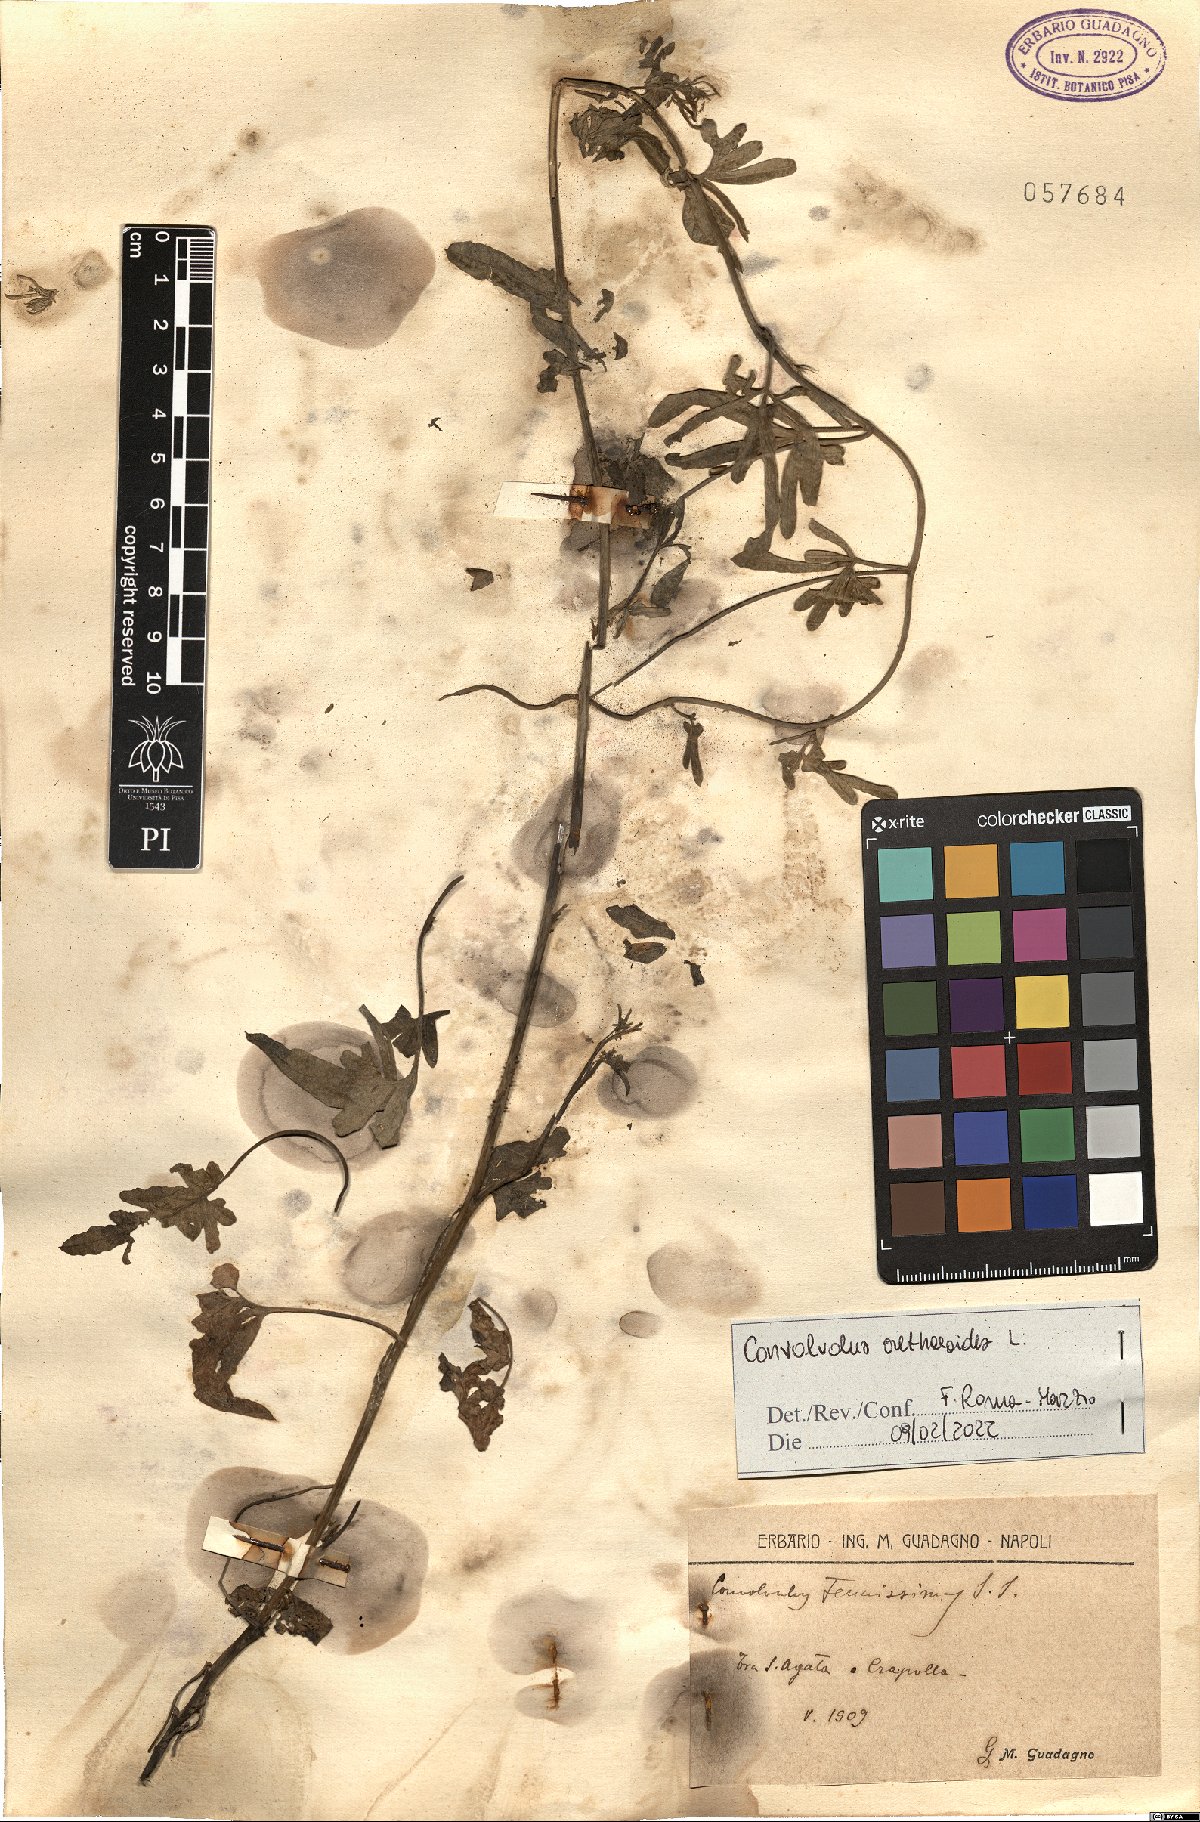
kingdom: Plantae
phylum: Tracheophyta
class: Magnoliopsida
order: Solanales
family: Convolvulaceae
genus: Convolvulus
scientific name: Convolvulus althaeoides
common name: Mallow bindweed
